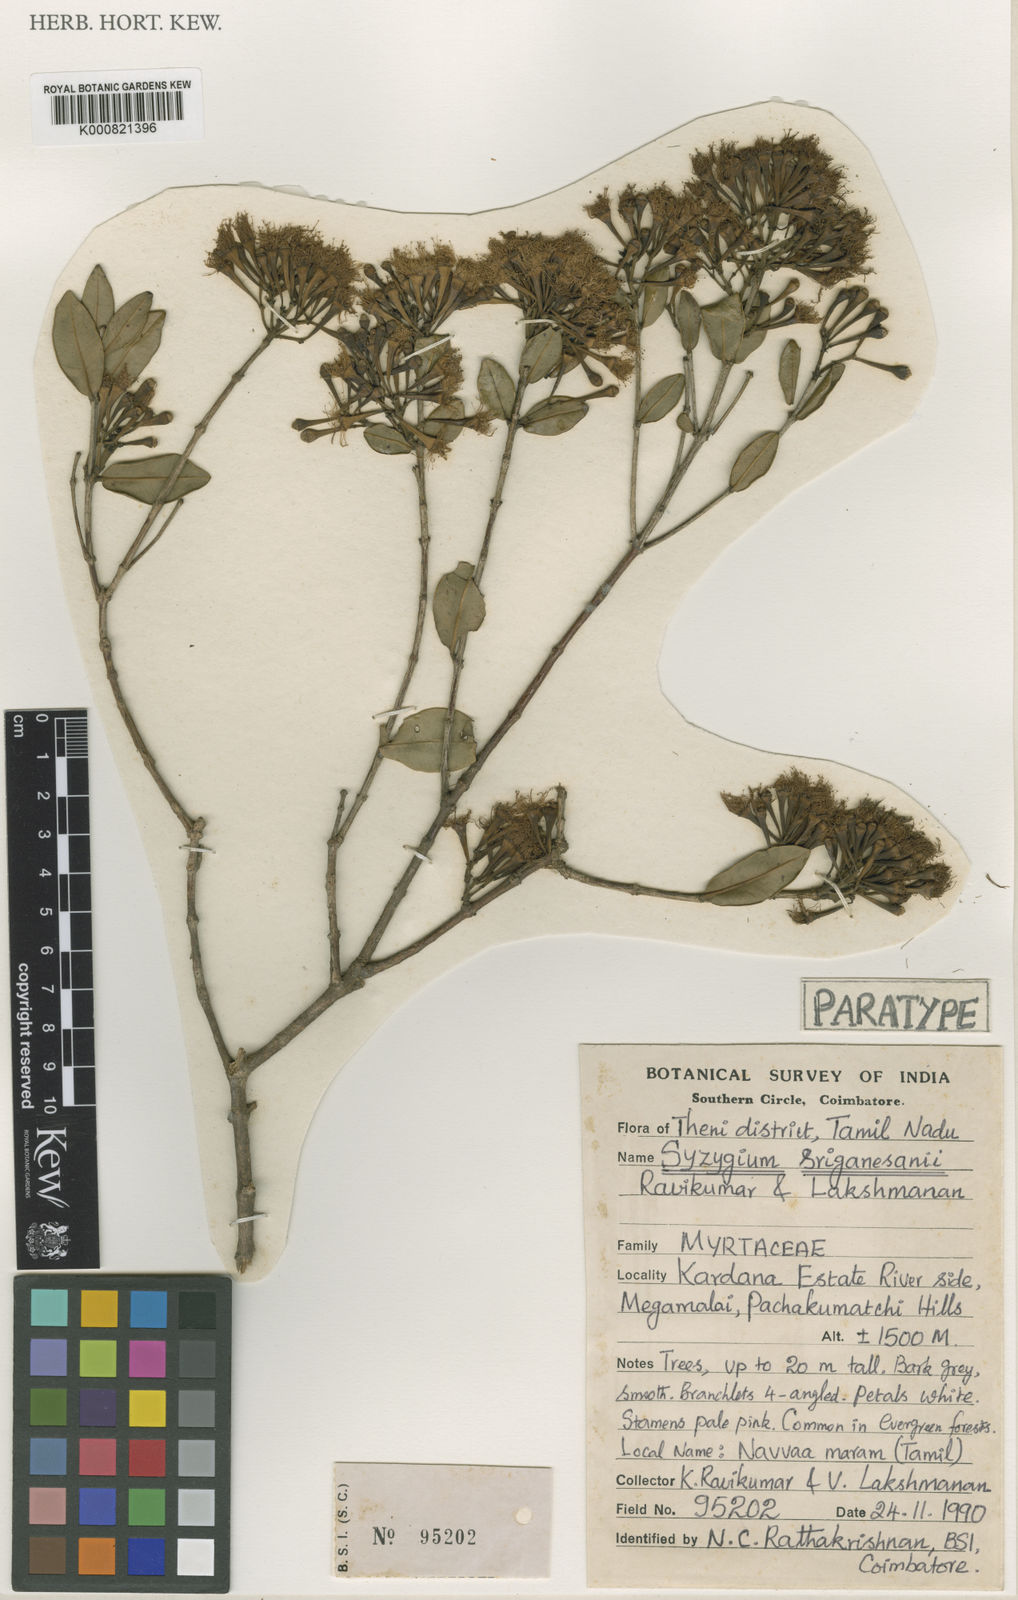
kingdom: Plantae
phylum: Tracheophyta
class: Magnoliopsida
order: Myrtales
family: Myrtaceae
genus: Syzygium
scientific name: Syzygium sriganesanii
